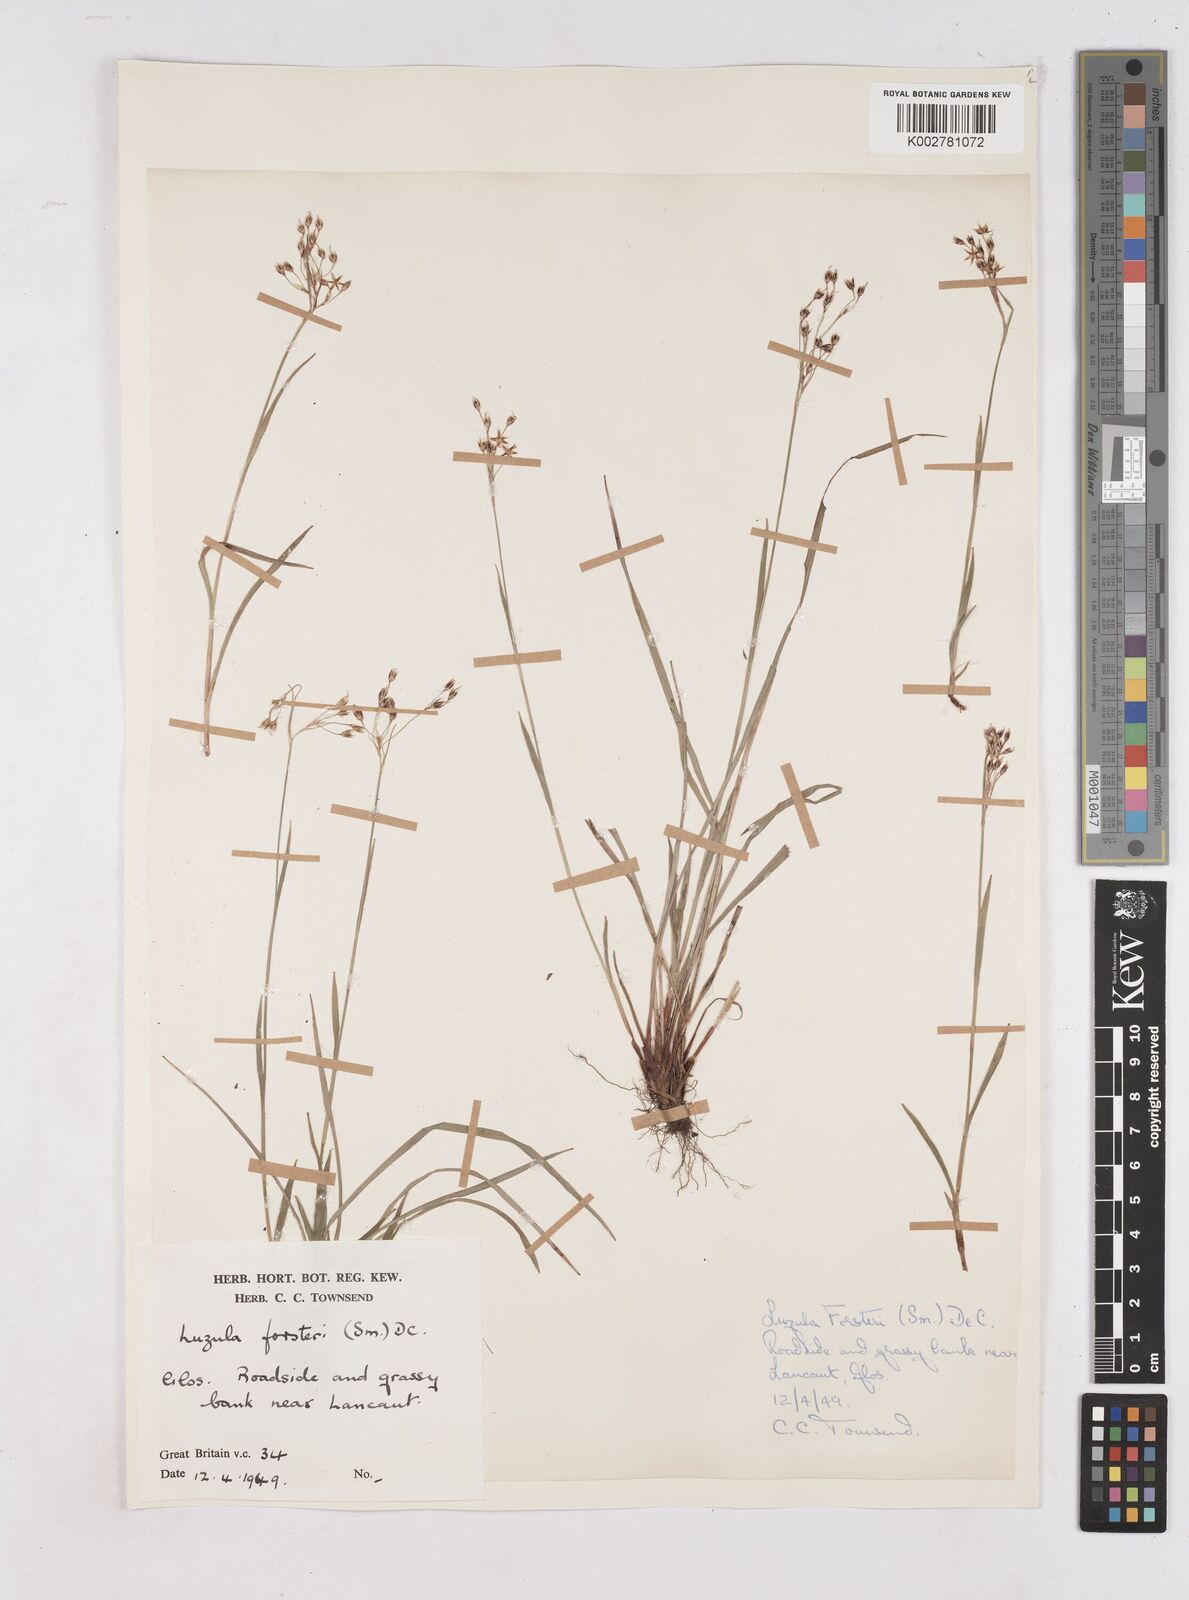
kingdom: Plantae
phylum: Tracheophyta
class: Liliopsida
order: Poales
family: Juncaceae
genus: Luzula
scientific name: Luzula forsteri
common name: Southern wood-rush
